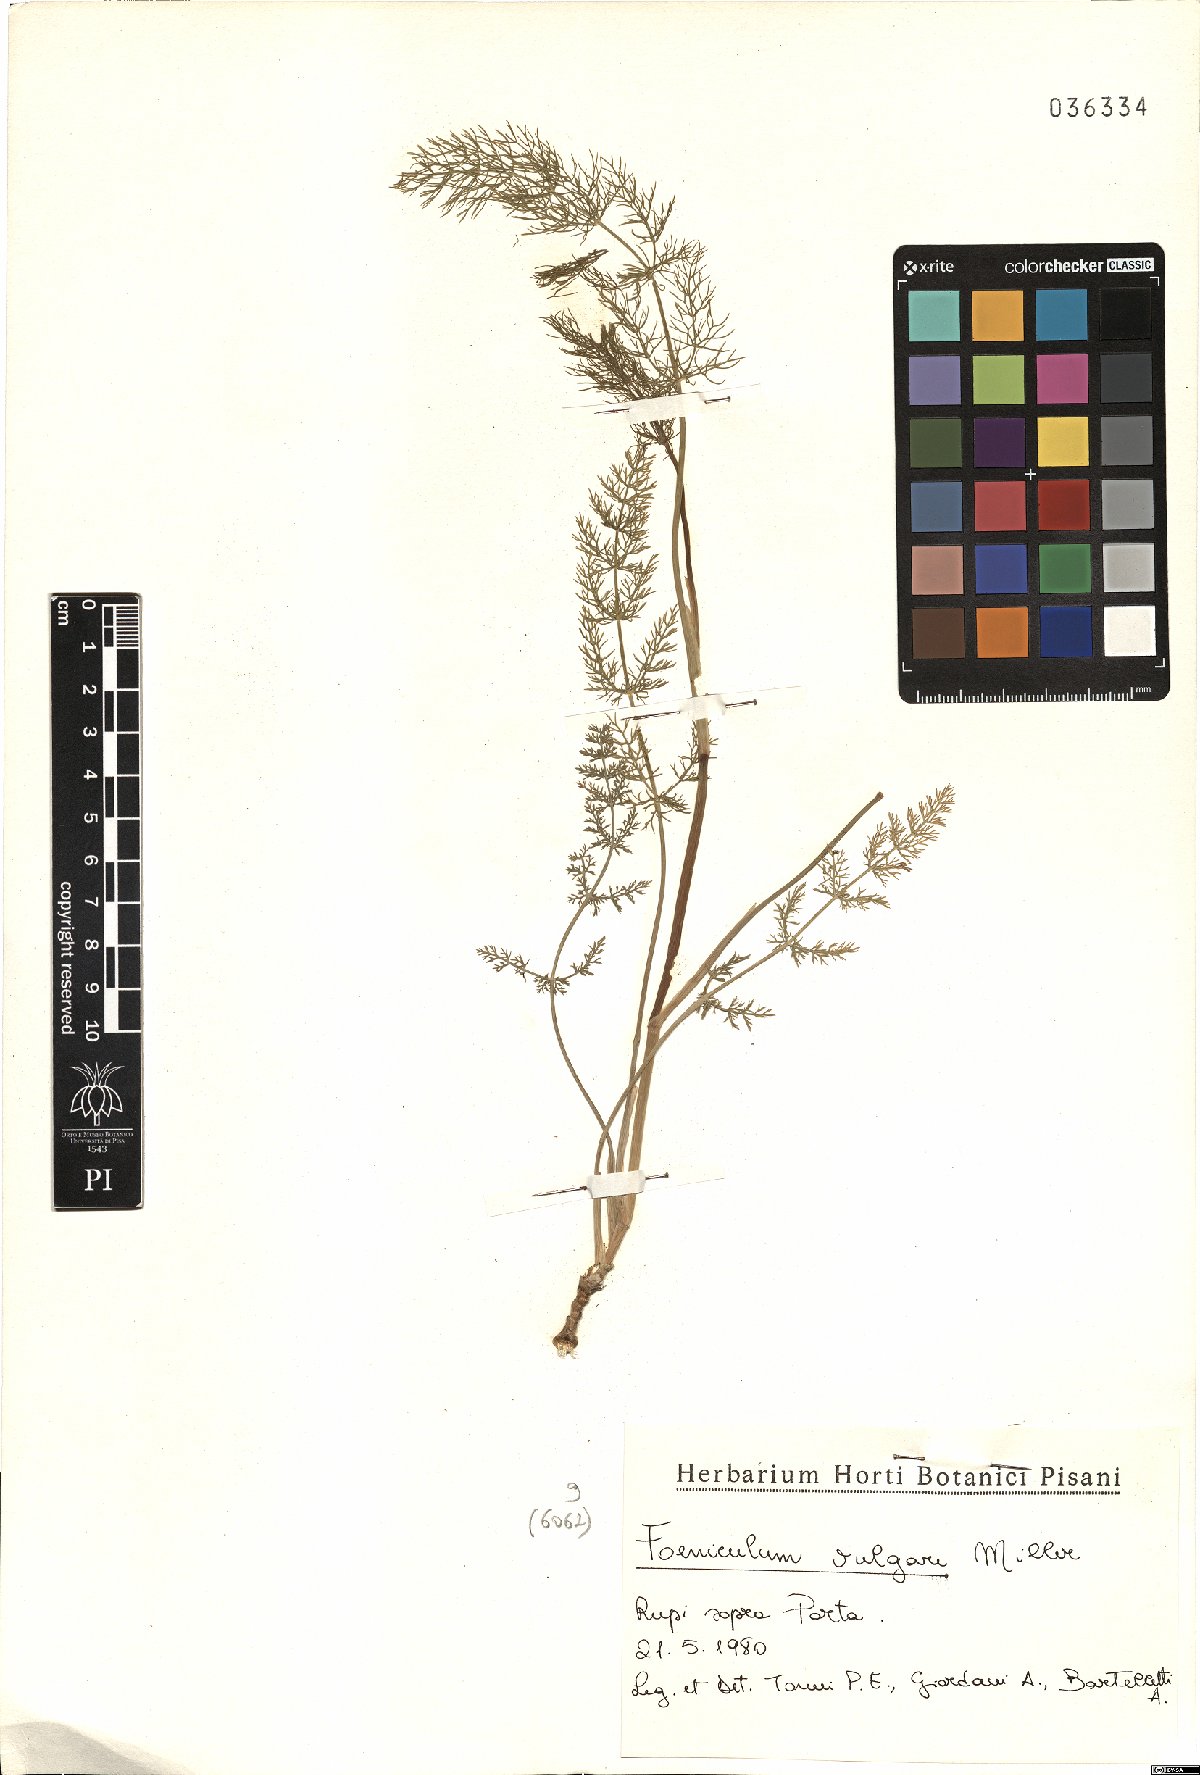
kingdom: Plantae
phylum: Tracheophyta
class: Magnoliopsida
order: Apiales
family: Apiaceae
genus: Foeniculum
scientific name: Foeniculum vulgare
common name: Fennel
